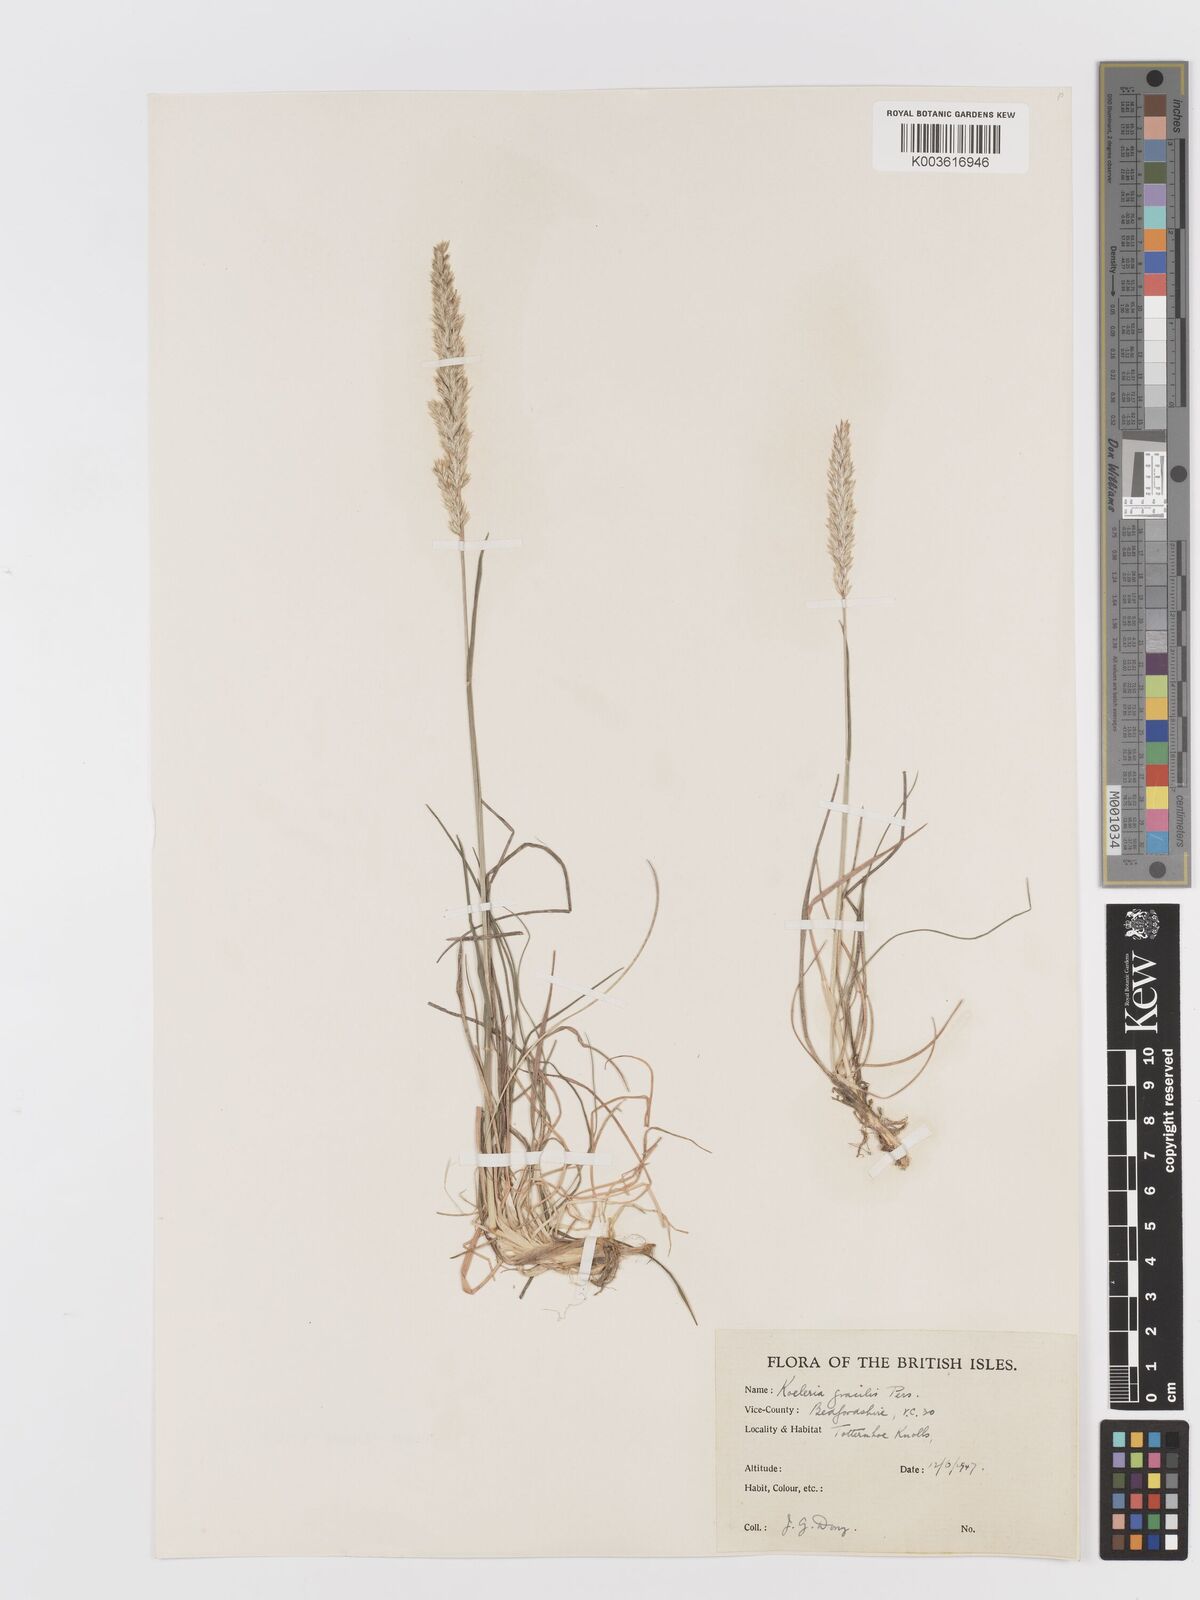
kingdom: Plantae
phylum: Tracheophyta
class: Liliopsida
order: Poales
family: Poaceae
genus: Koeleria
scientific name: Koeleria macrantha
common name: Crested hair-grass
